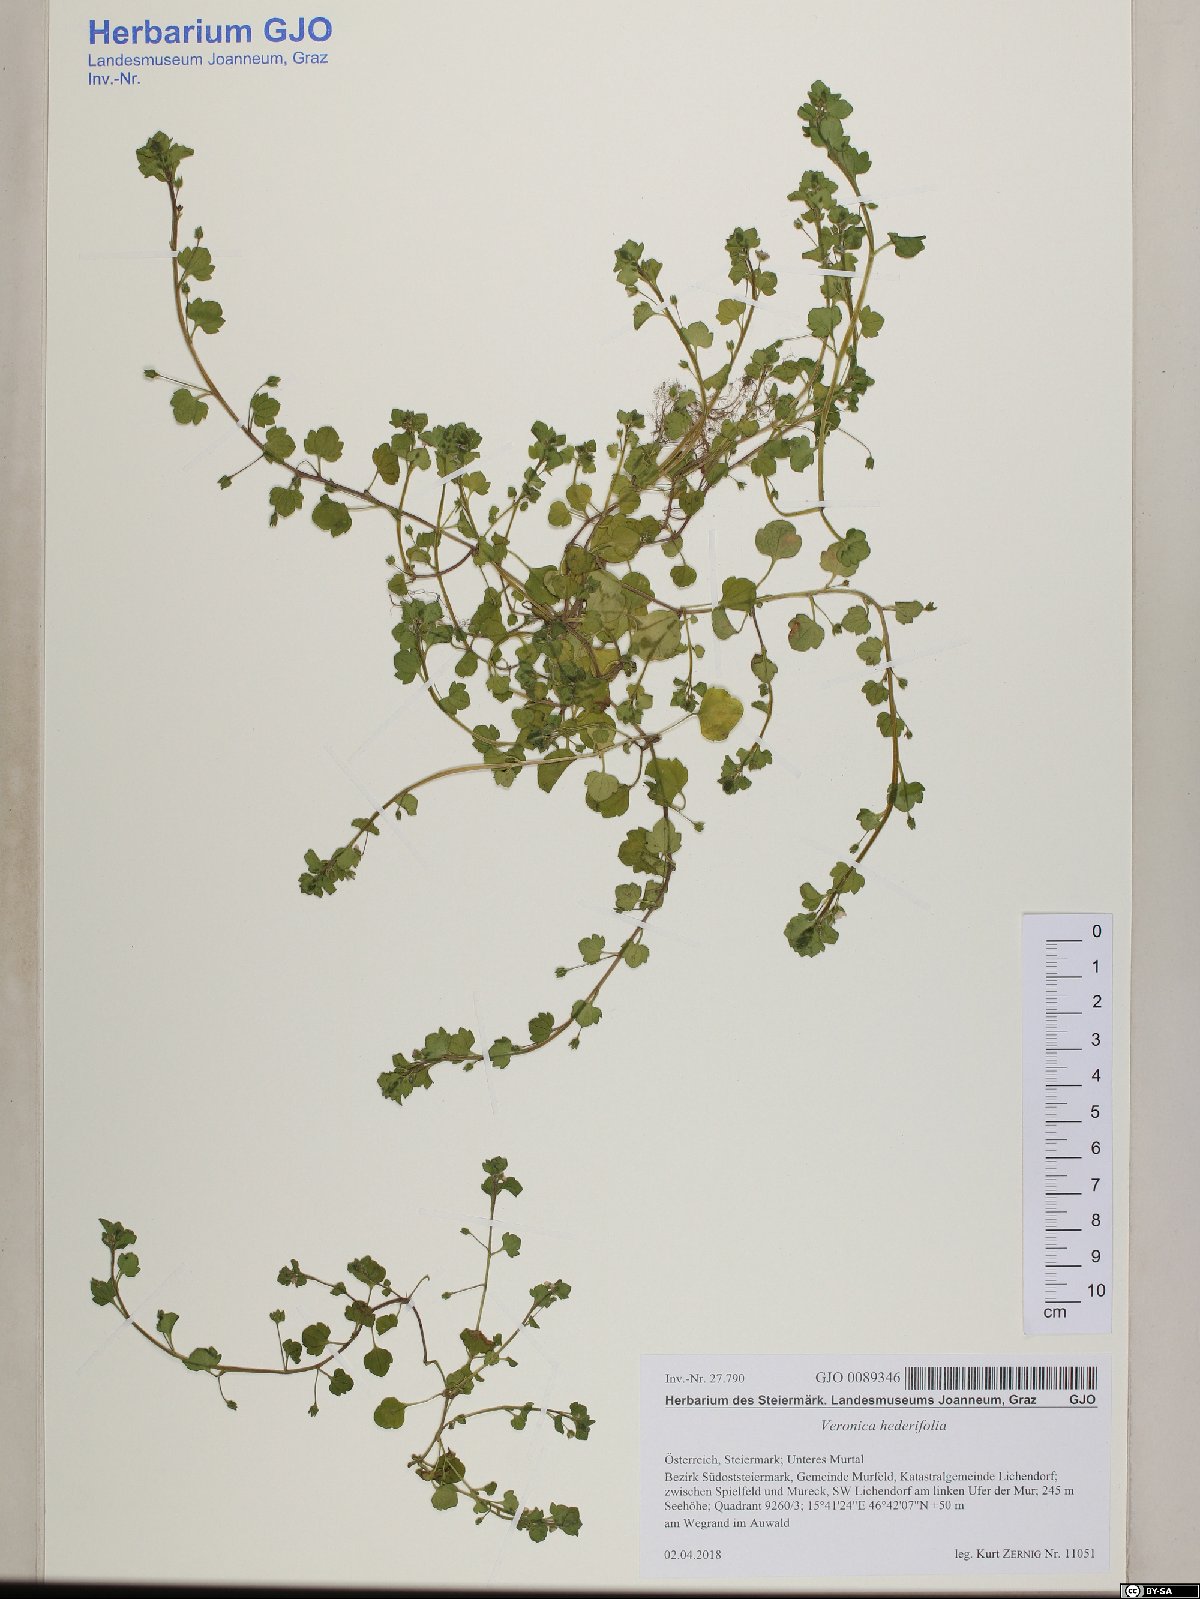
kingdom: Plantae
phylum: Tracheophyta
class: Magnoliopsida
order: Lamiales
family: Plantaginaceae
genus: Veronica
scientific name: Veronica hederifolia
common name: Ivy-leaved speedwell
